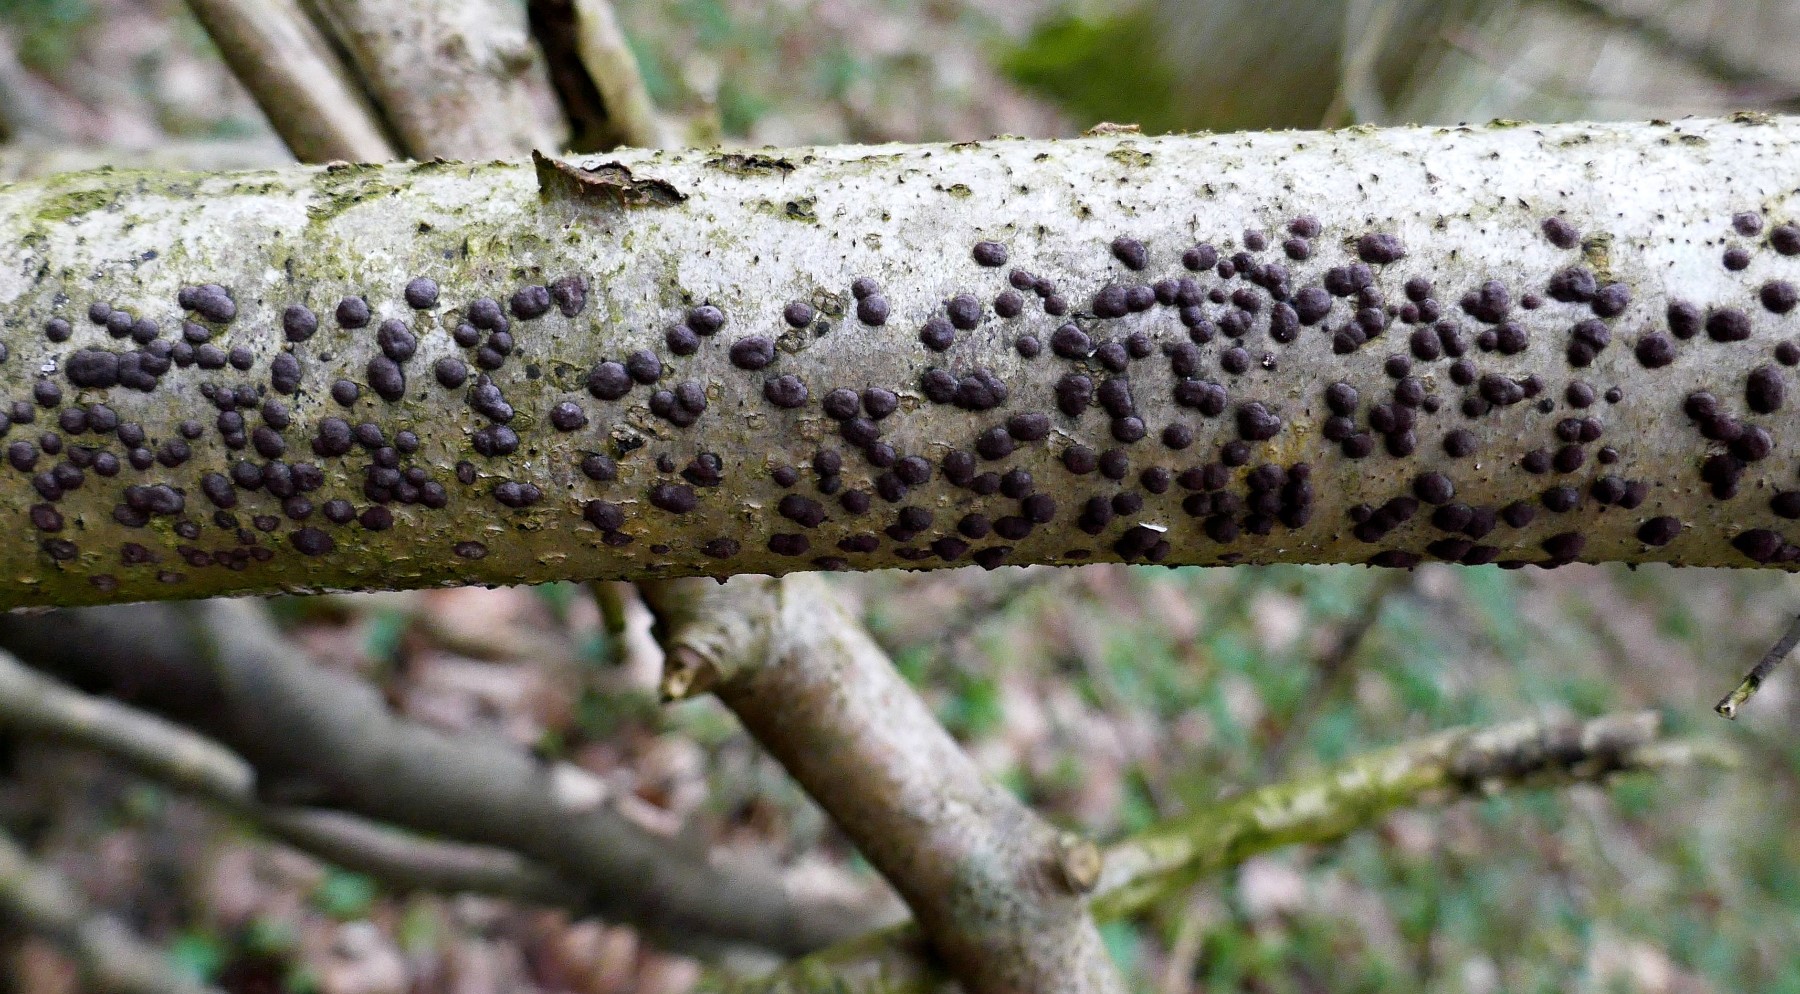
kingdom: Fungi
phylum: Ascomycota
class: Sordariomycetes
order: Xylariales
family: Hypoxylaceae
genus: Hypoxylon
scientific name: Hypoxylon fuscum
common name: kegleformet kulbær
